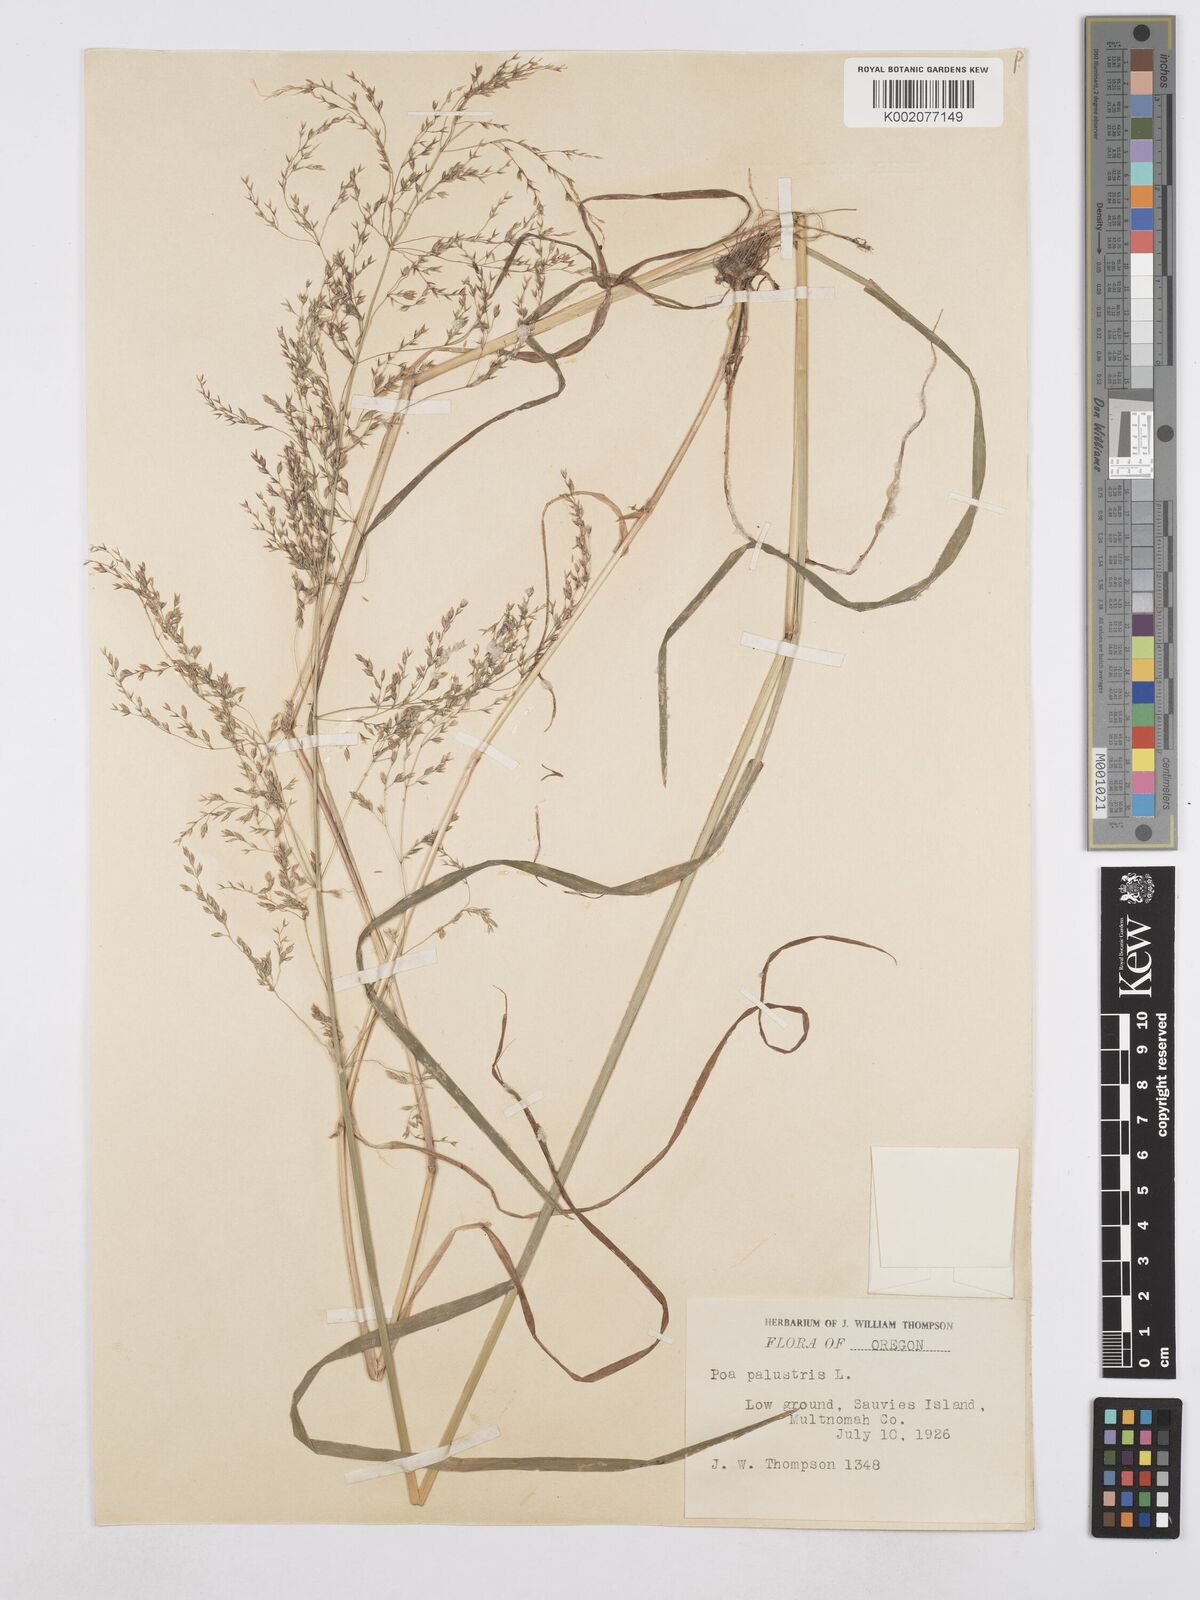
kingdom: Plantae
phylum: Tracheophyta
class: Liliopsida
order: Poales
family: Poaceae
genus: Poa
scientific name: Poa palustris
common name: Swamp meadow-grass
